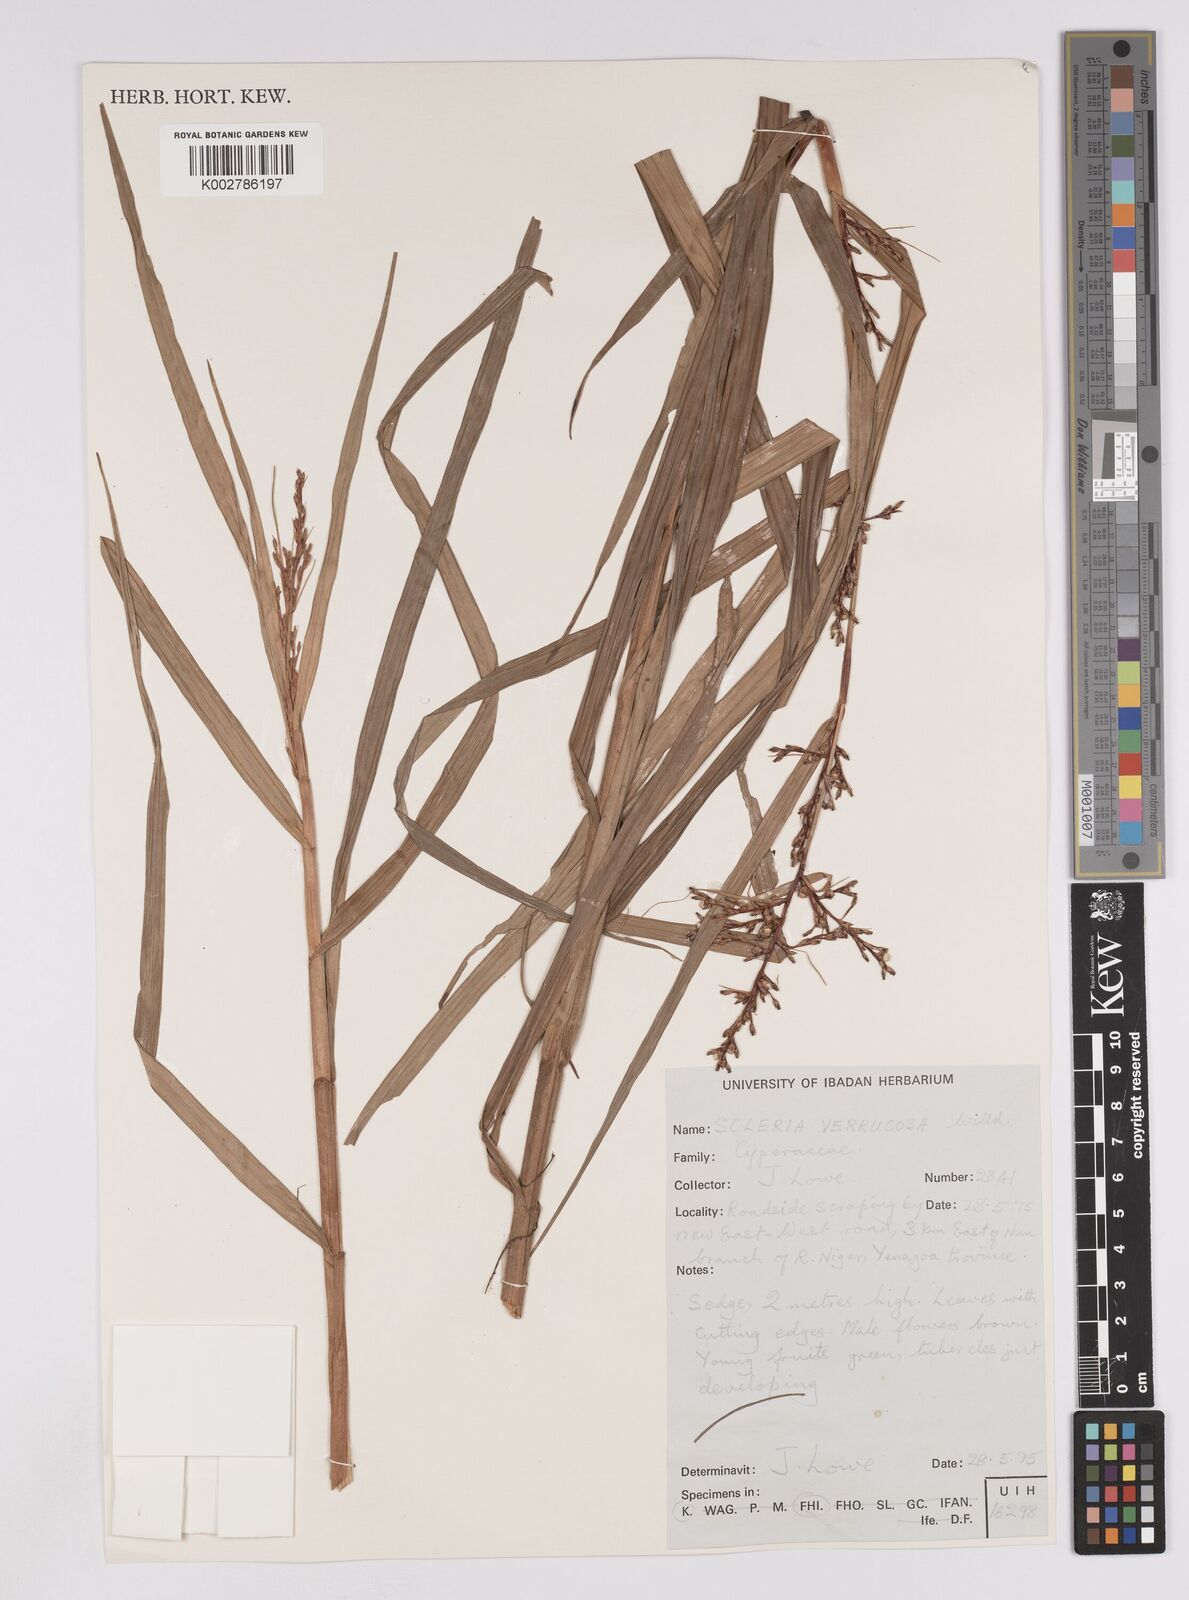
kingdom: Plantae
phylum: Tracheophyta
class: Liliopsida
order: Poales
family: Cyperaceae
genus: Scleria
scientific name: Scleria verrucosa
